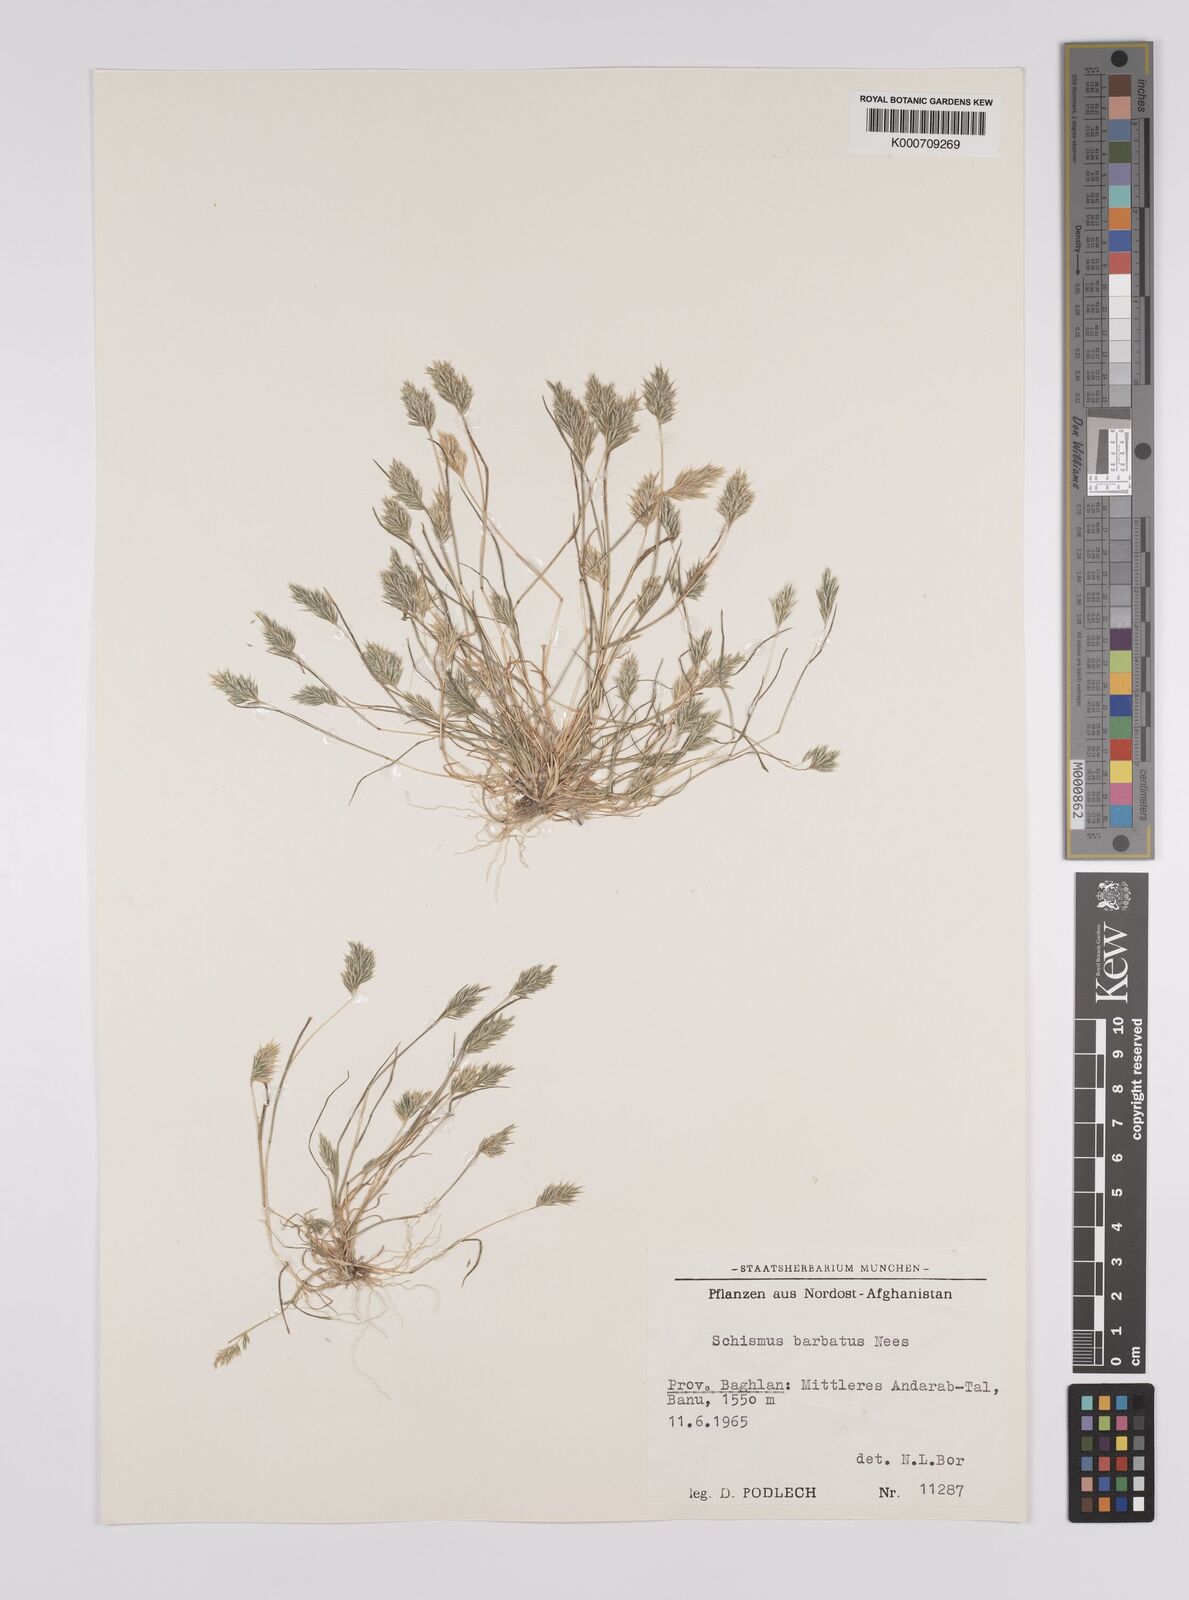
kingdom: Plantae
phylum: Tracheophyta
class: Liliopsida
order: Poales
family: Poaceae
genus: Schismus
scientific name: Schismus barbatus
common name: Kelch-grass
